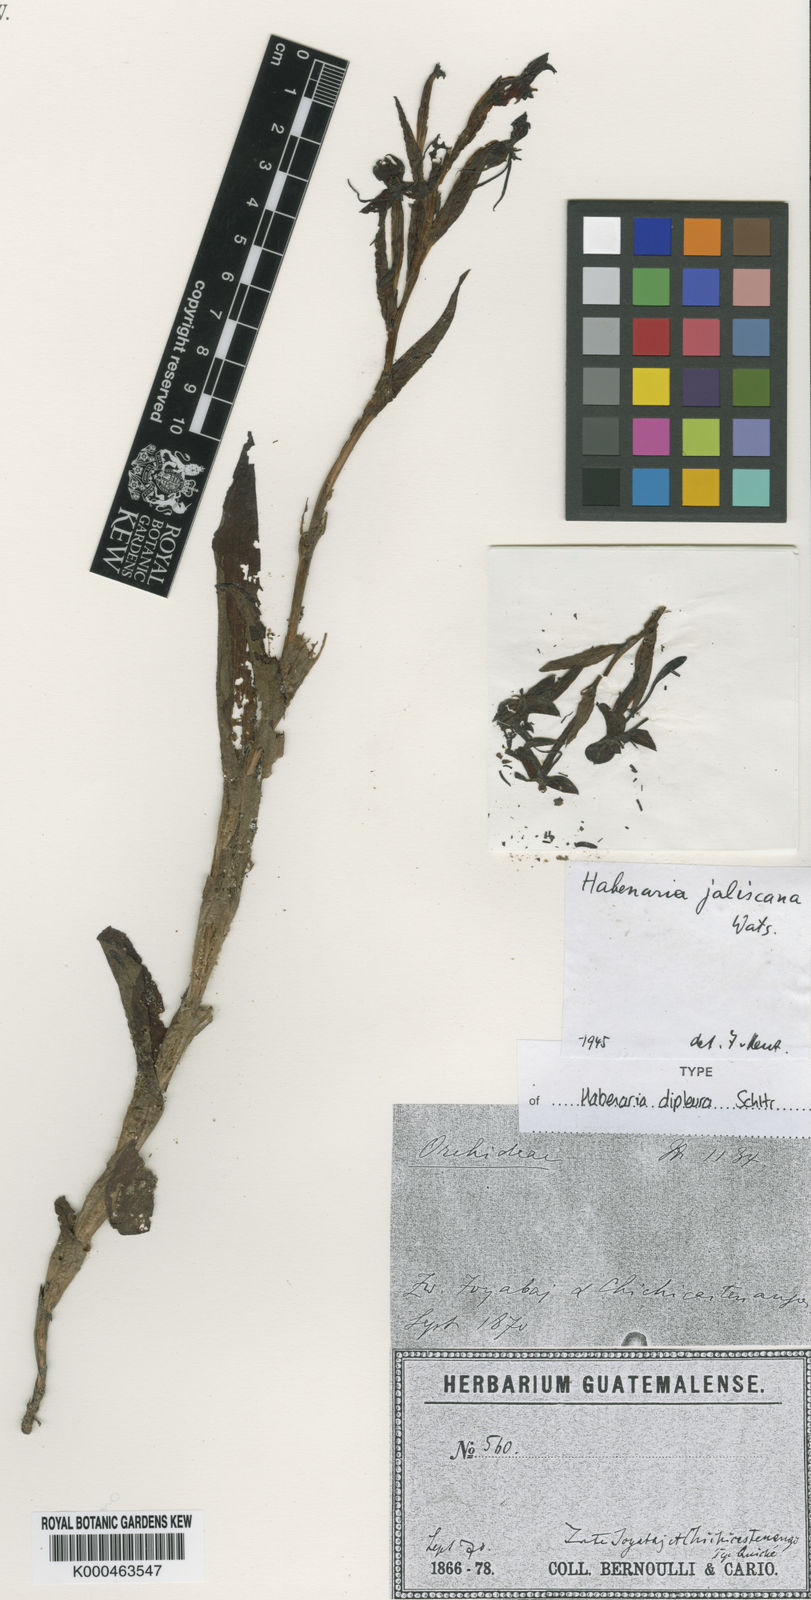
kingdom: Plantae
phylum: Tracheophyta
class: Liliopsida
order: Asparagales
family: Orchidaceae
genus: Habenaria
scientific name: Habenaria jaliscana
